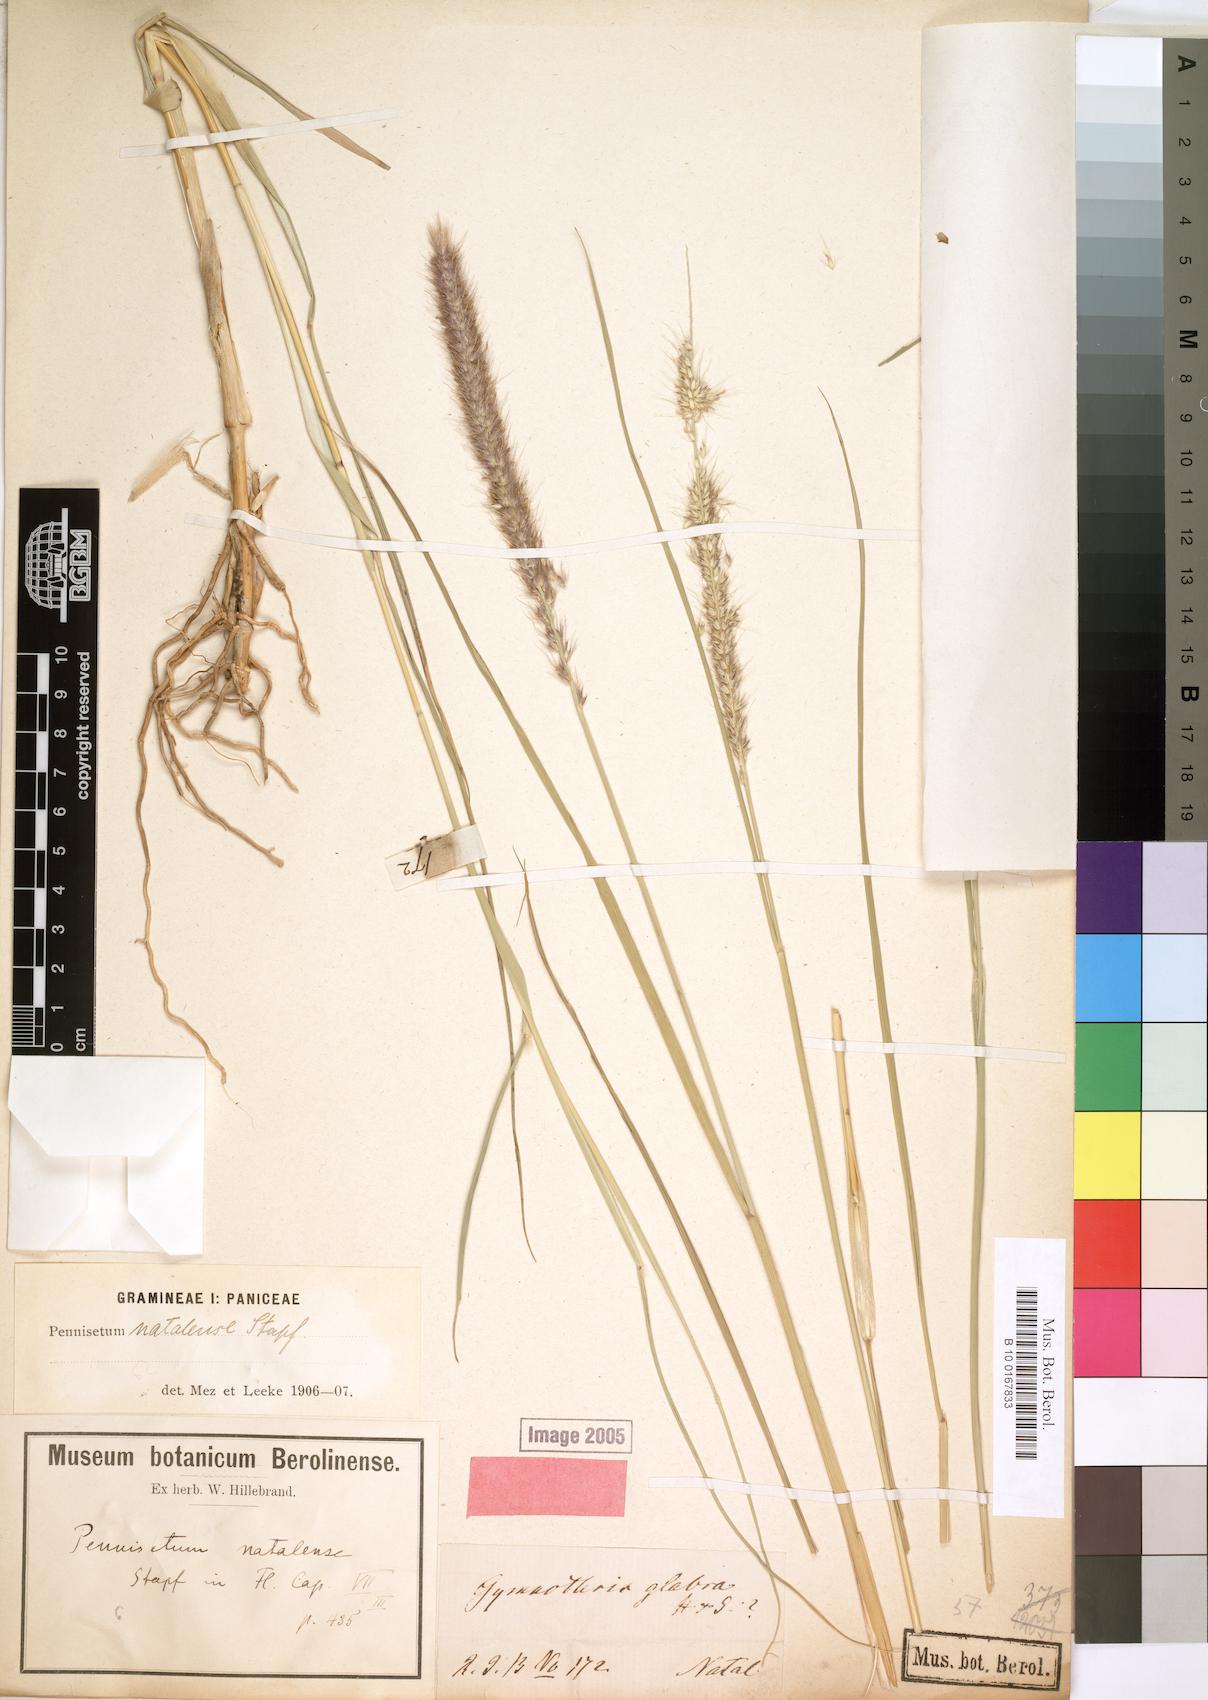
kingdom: Plantae
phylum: Tracheophyta
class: Liliopsida
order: Poales
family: Poaceae
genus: Cenchrus
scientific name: Cenchrus caudatus
